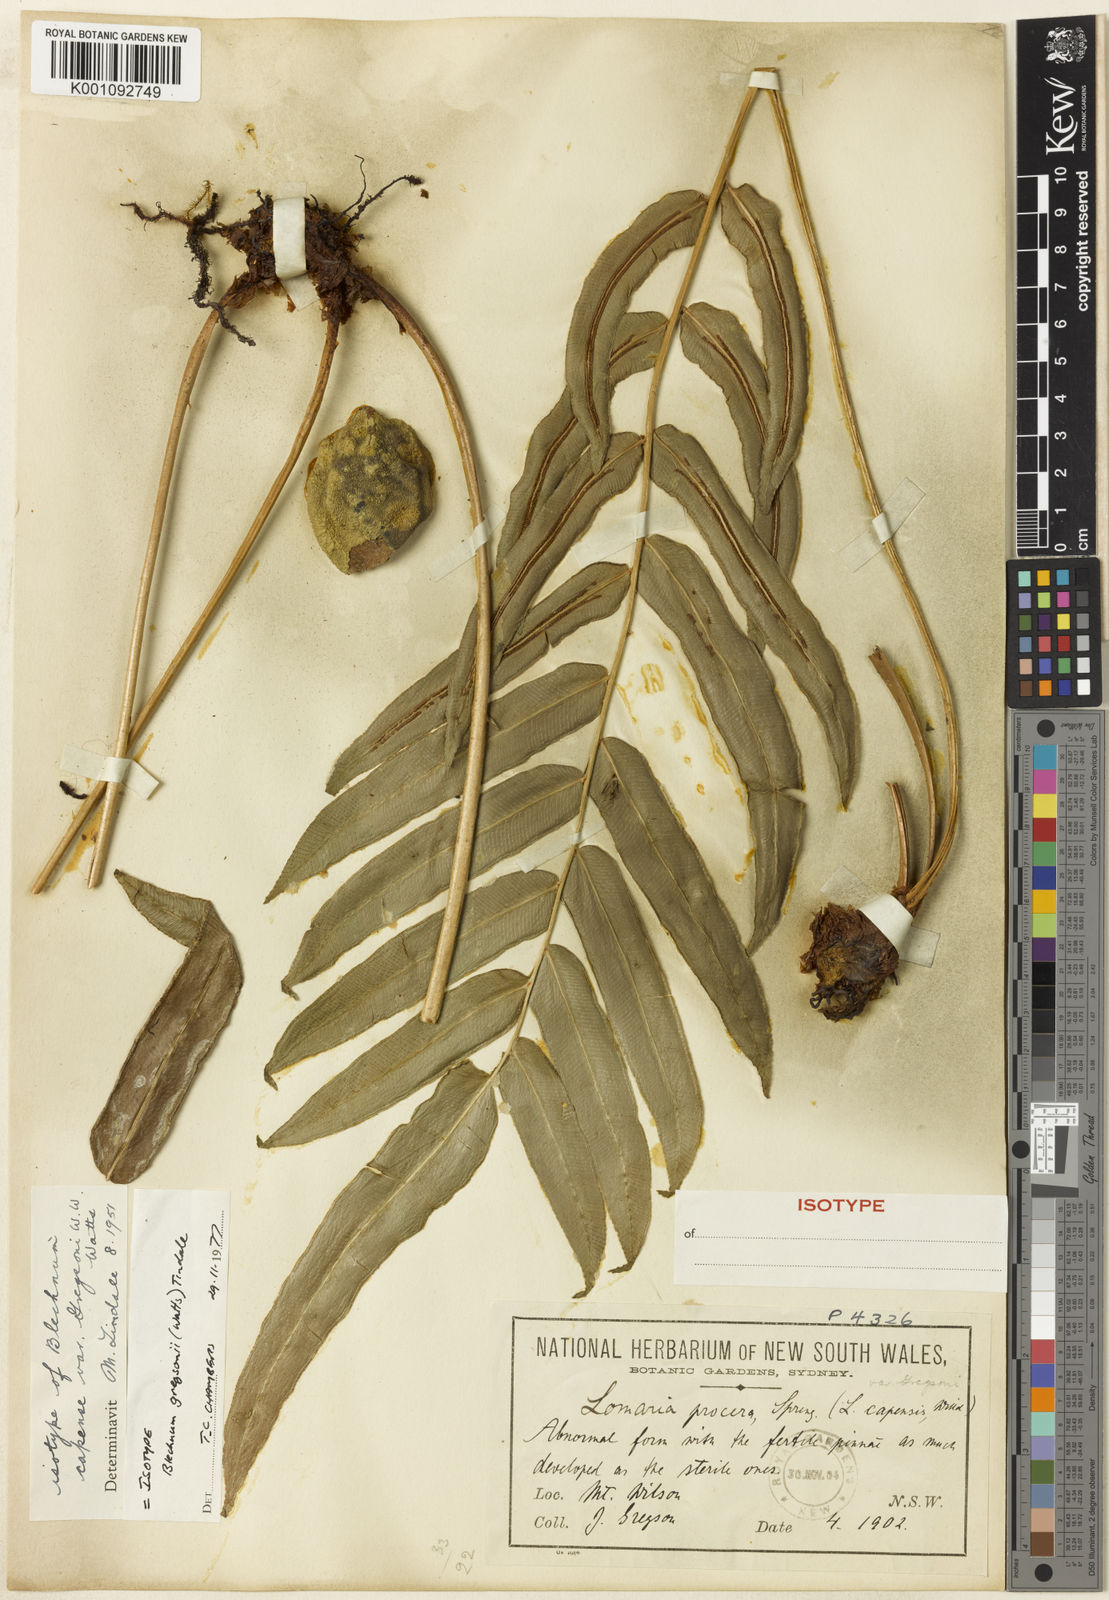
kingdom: Plantae
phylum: Tracheophyta
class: Polypodiopsida
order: Polypodiales
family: Blechnaceae
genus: Parablechnum
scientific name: Parablechnum gregsonii
